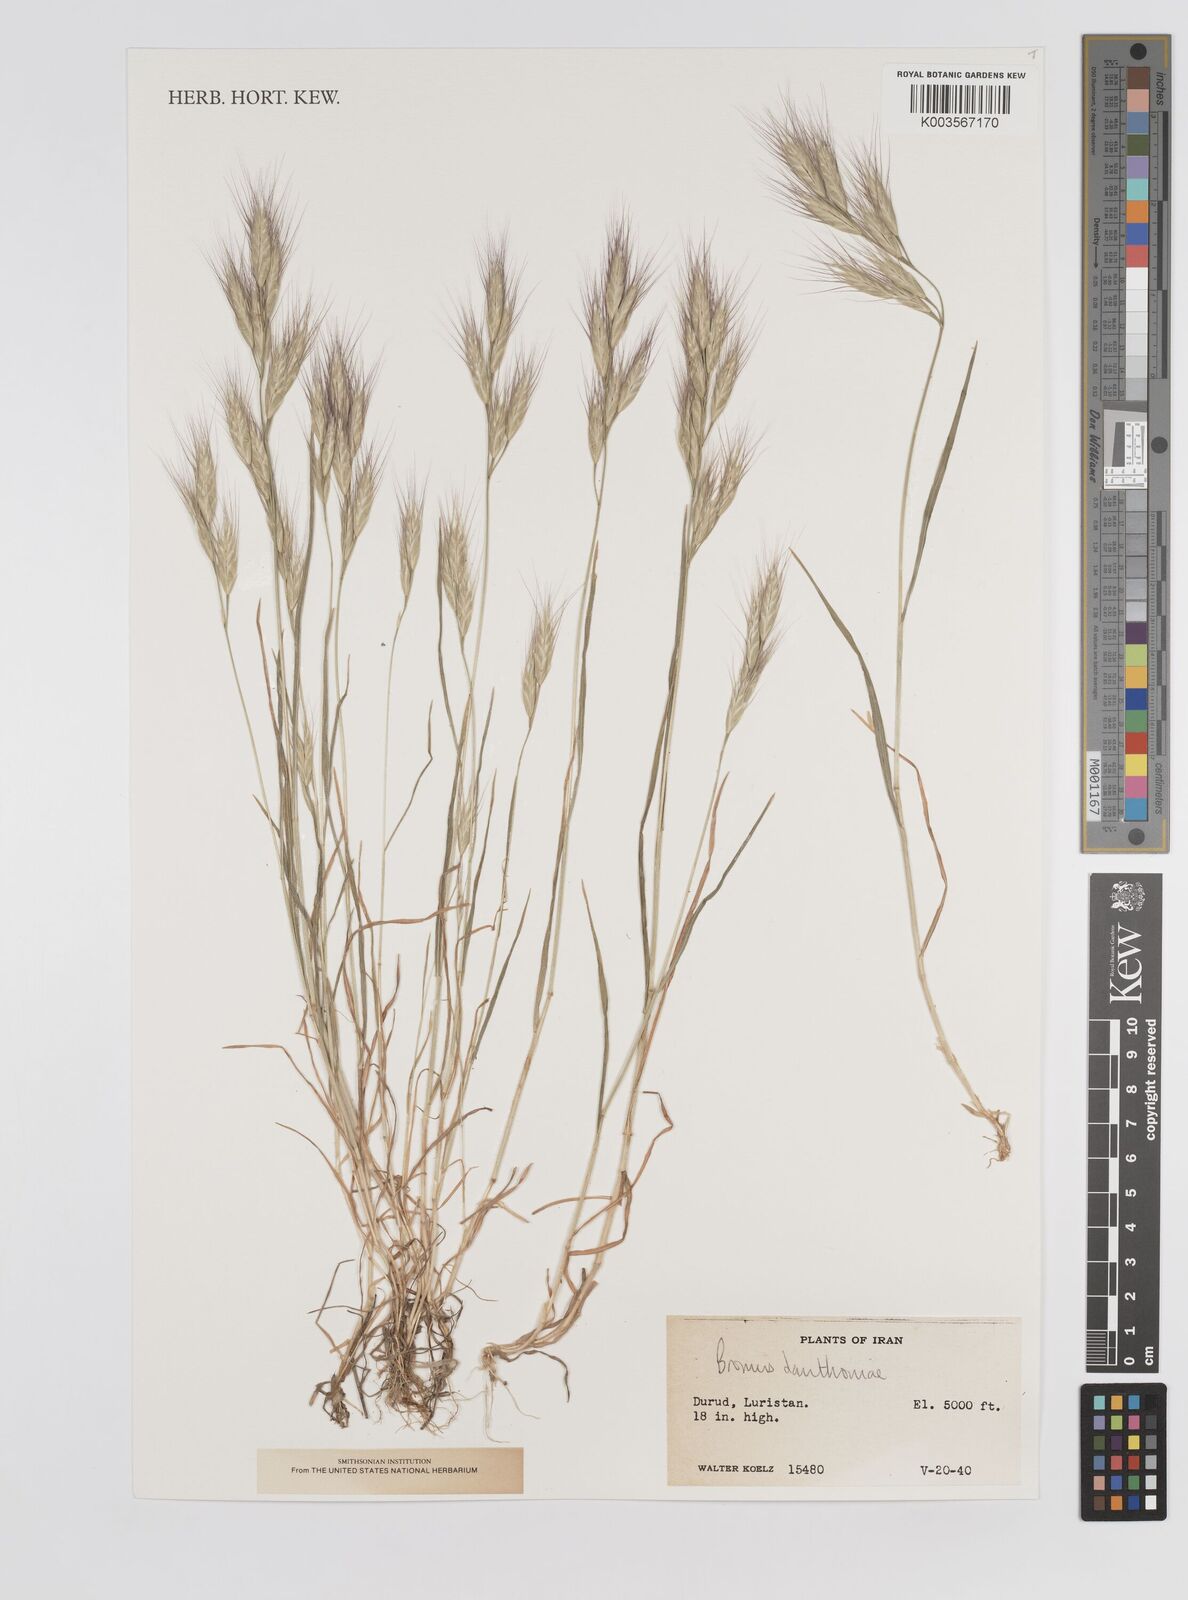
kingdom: Plantae
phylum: Tracheophyta
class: Liliopsida
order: Poales
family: Poaceae
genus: Bromus
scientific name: Bromus danthoniae
